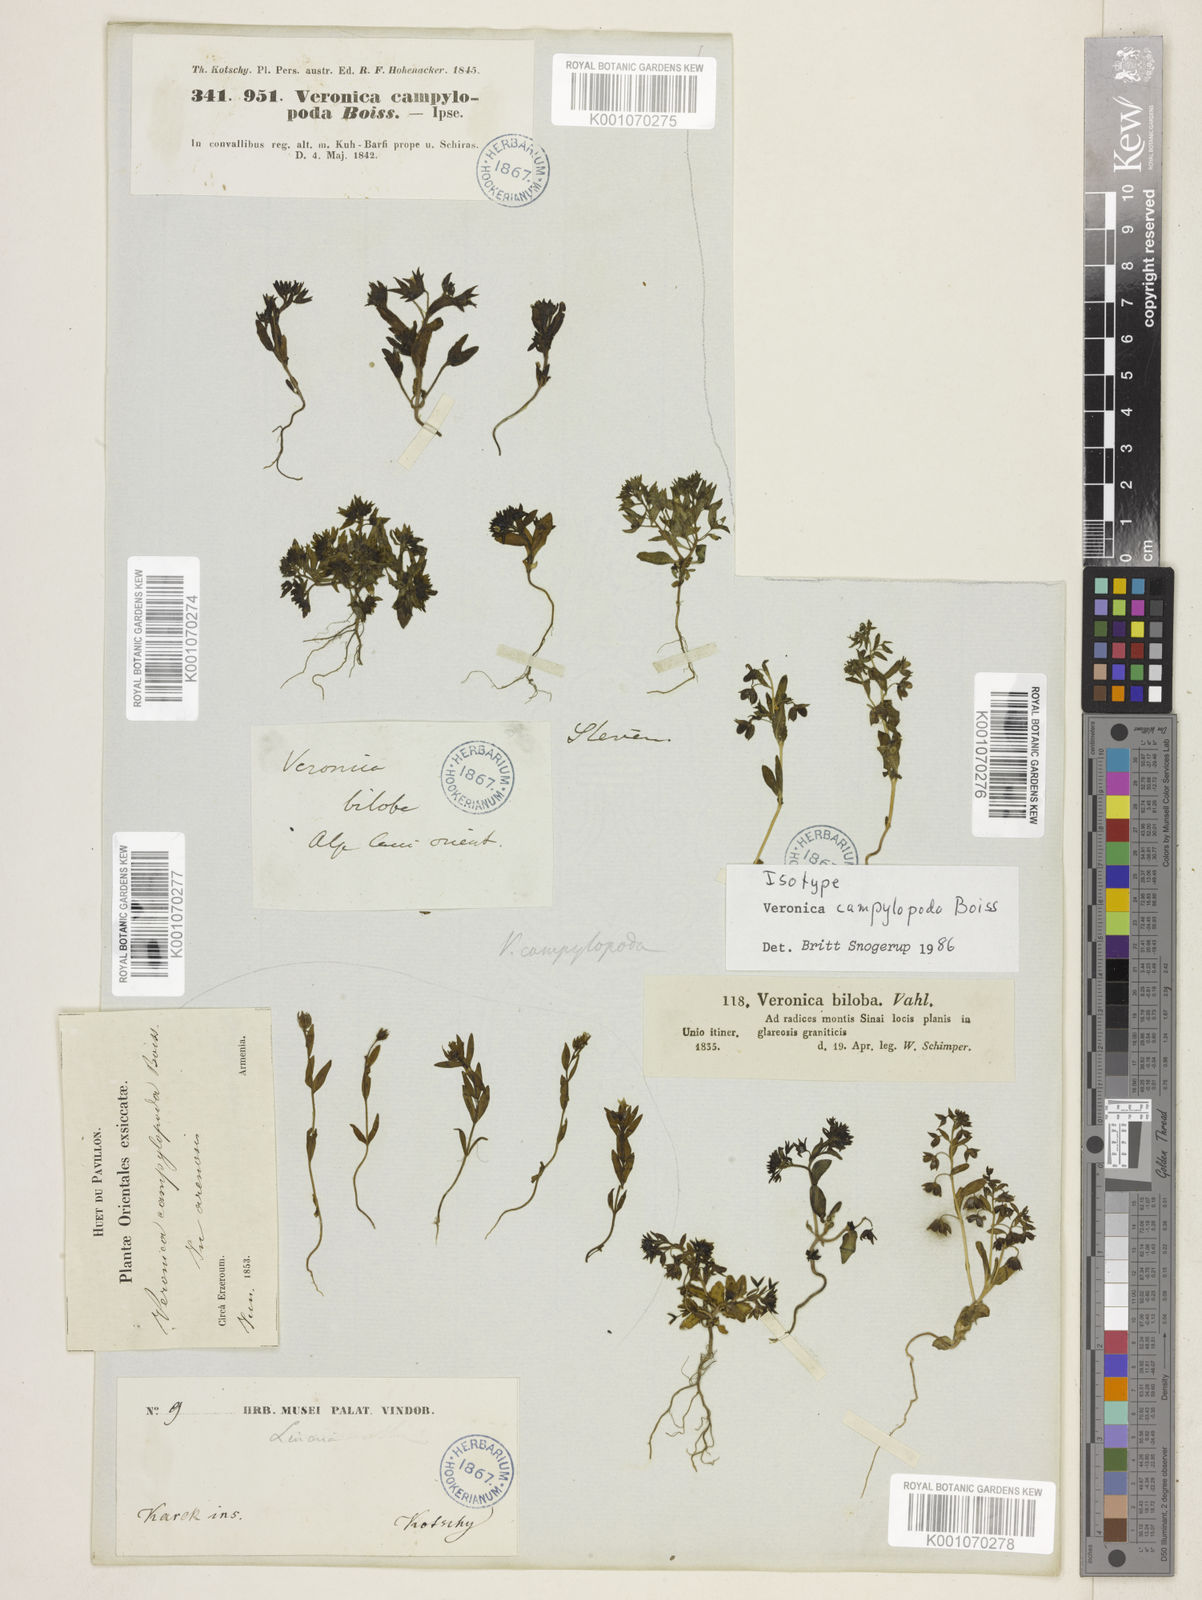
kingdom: Plantae
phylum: Tracheophyta
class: Magnoliopsida
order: Lamiales
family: Plantaginaceae
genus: Veronica
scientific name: Veronica campylopoda
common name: Bent-foot speedwell
